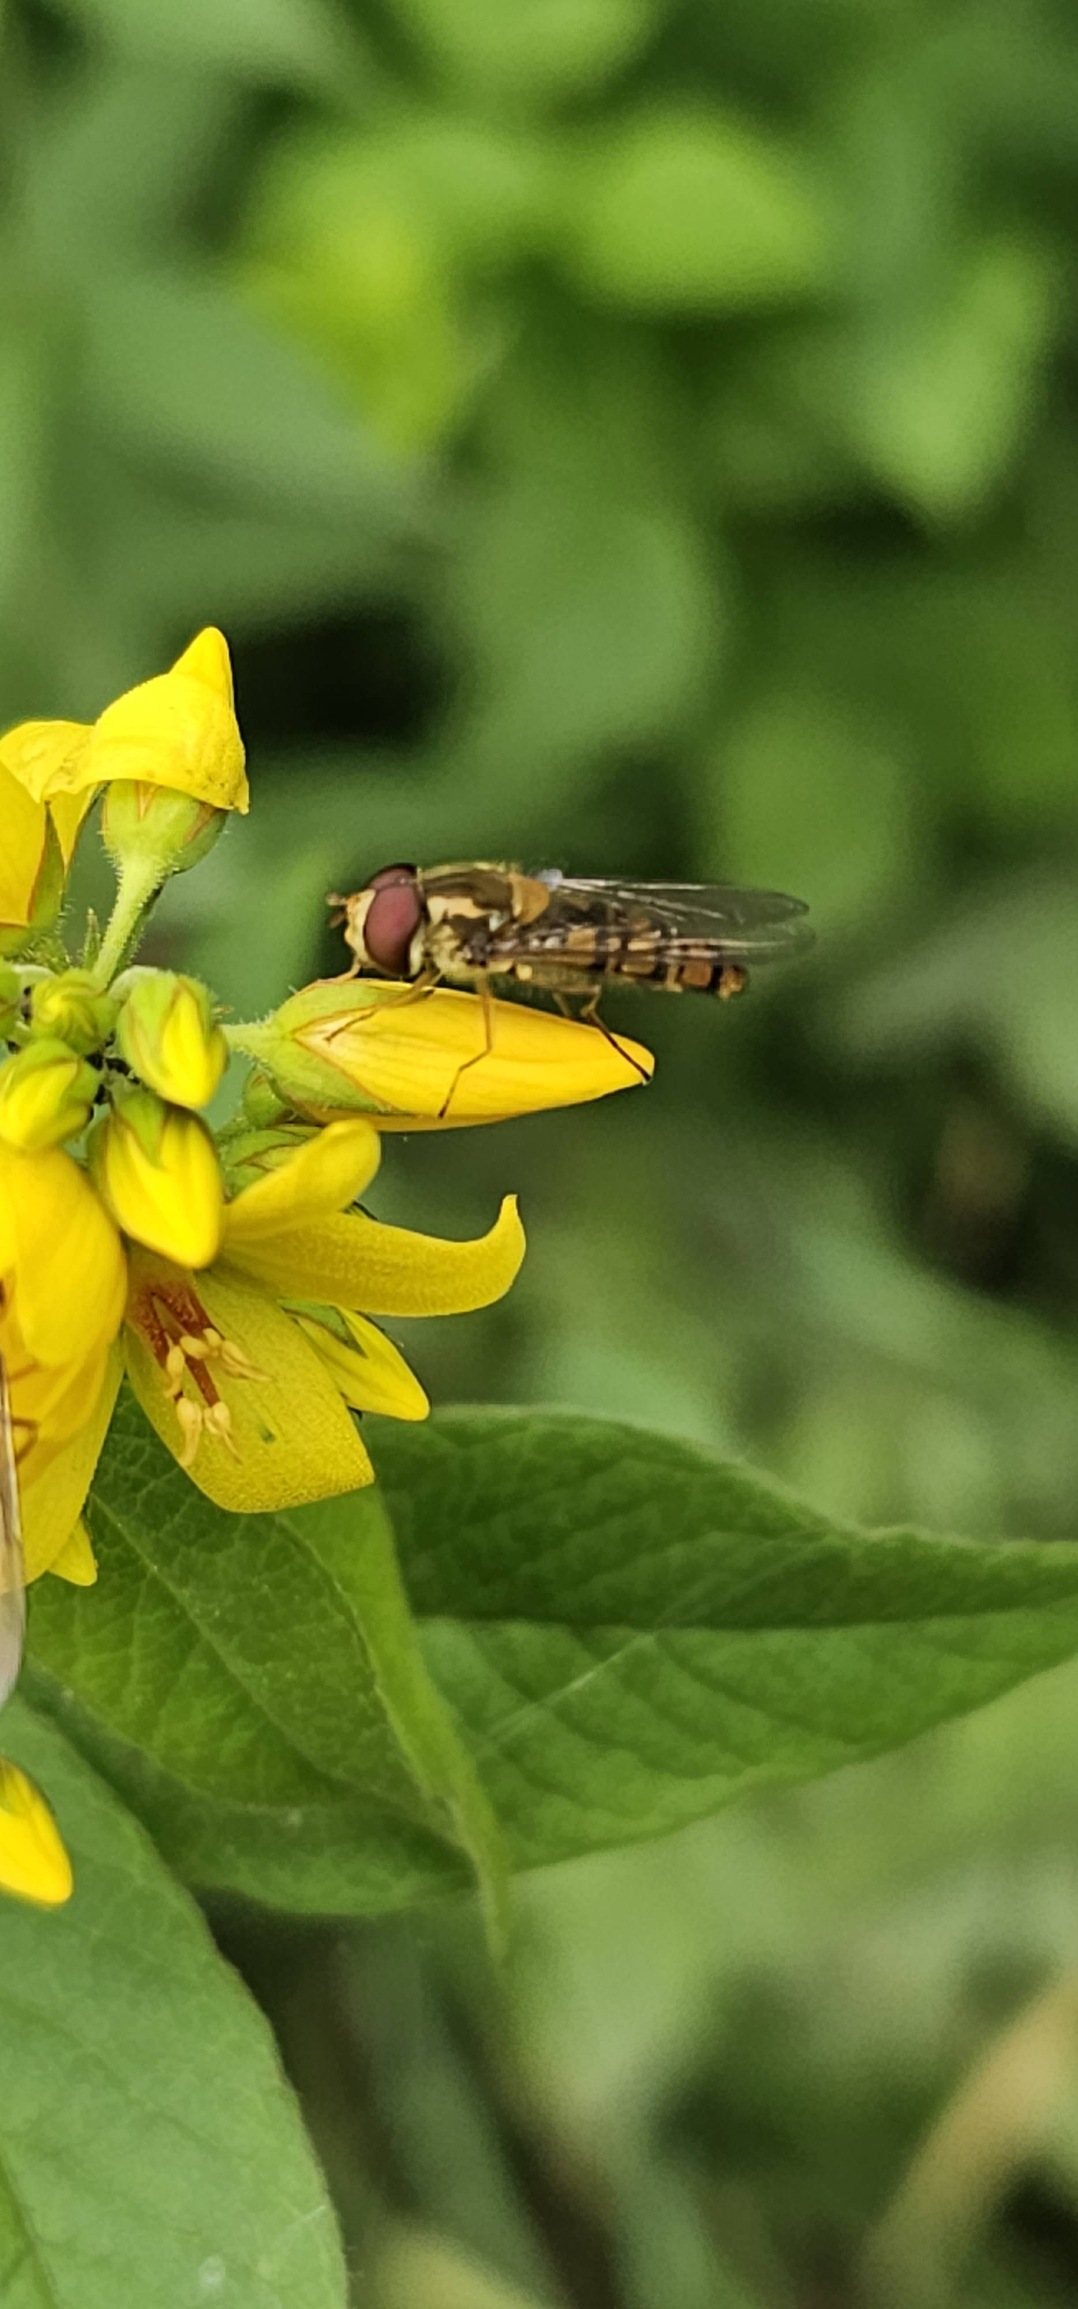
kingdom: Animalia
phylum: Arthropoda
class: Insecta
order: Diptera
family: Syrphidae
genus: Episyrphus
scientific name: Episyrphus balteatus
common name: Dobbeltbåndet svirreflue
